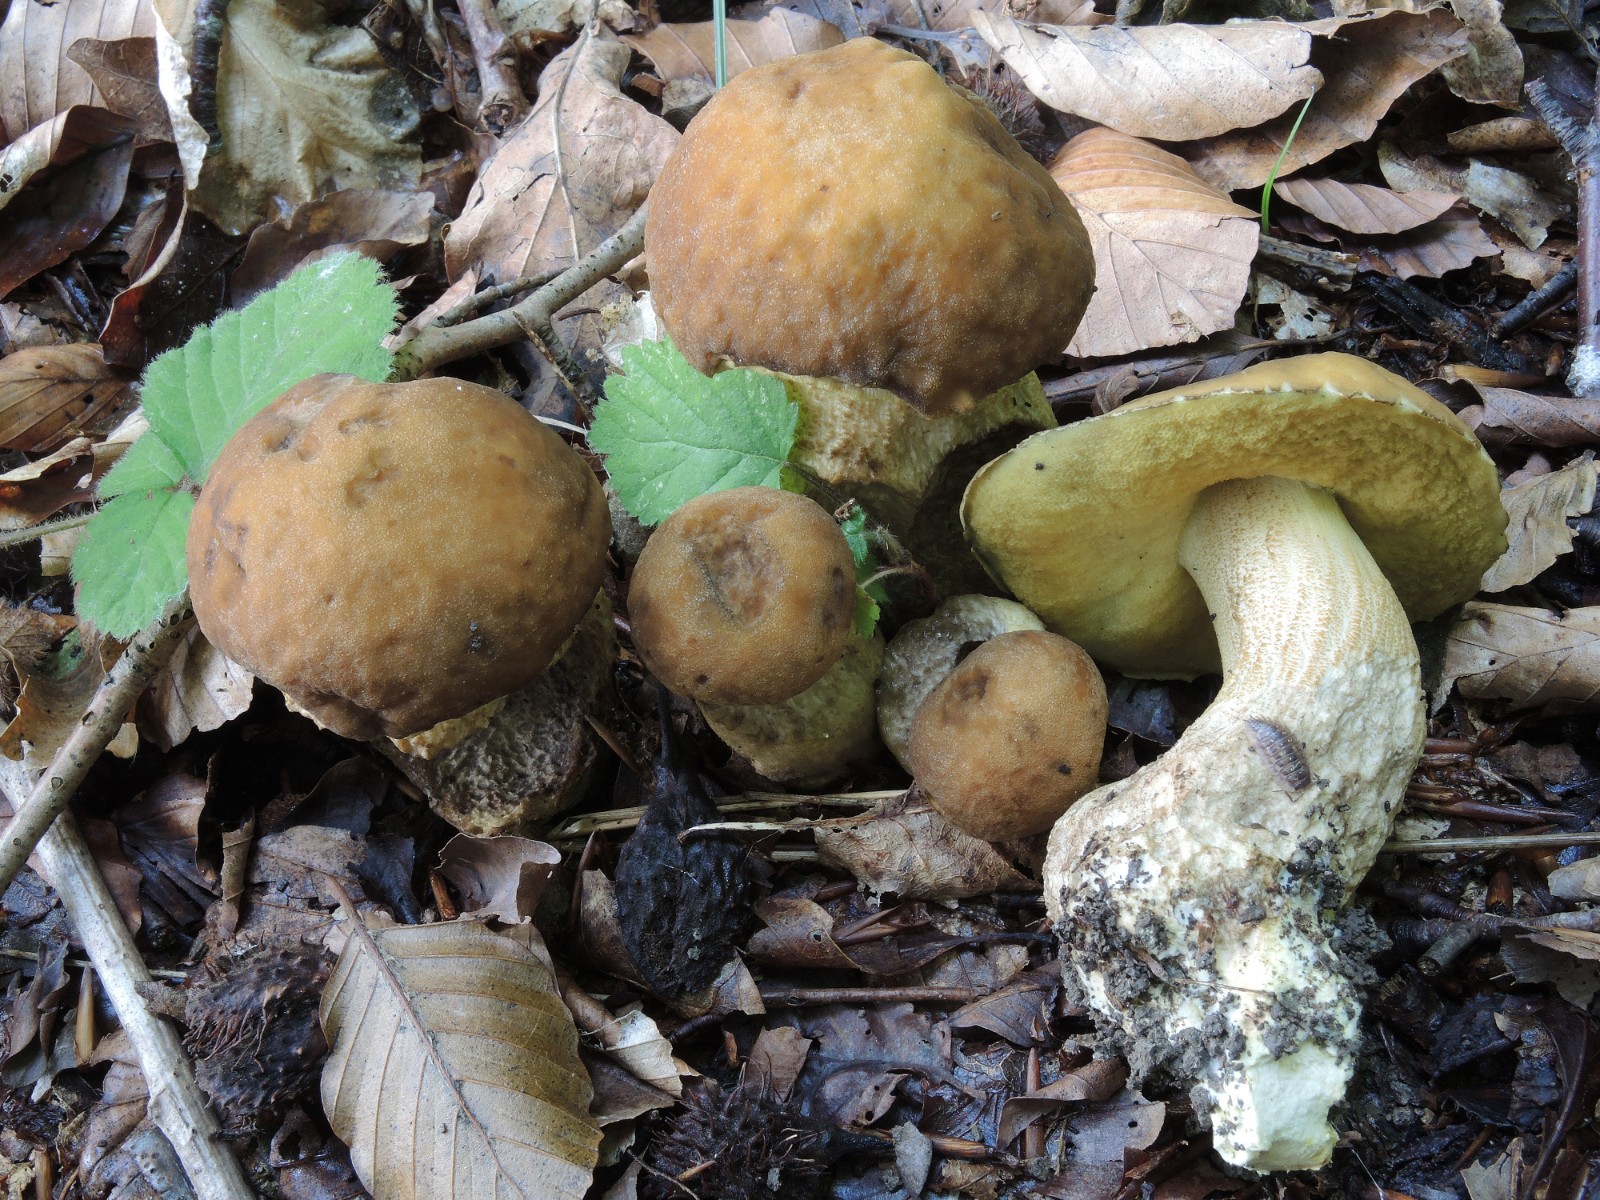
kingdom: Fungi
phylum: Basidiomycota
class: Agaricomycetes
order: Boletales
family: Boletaceae
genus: Leccinellum
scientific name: Leccinellum crocipodium
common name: gul skælrørhat
